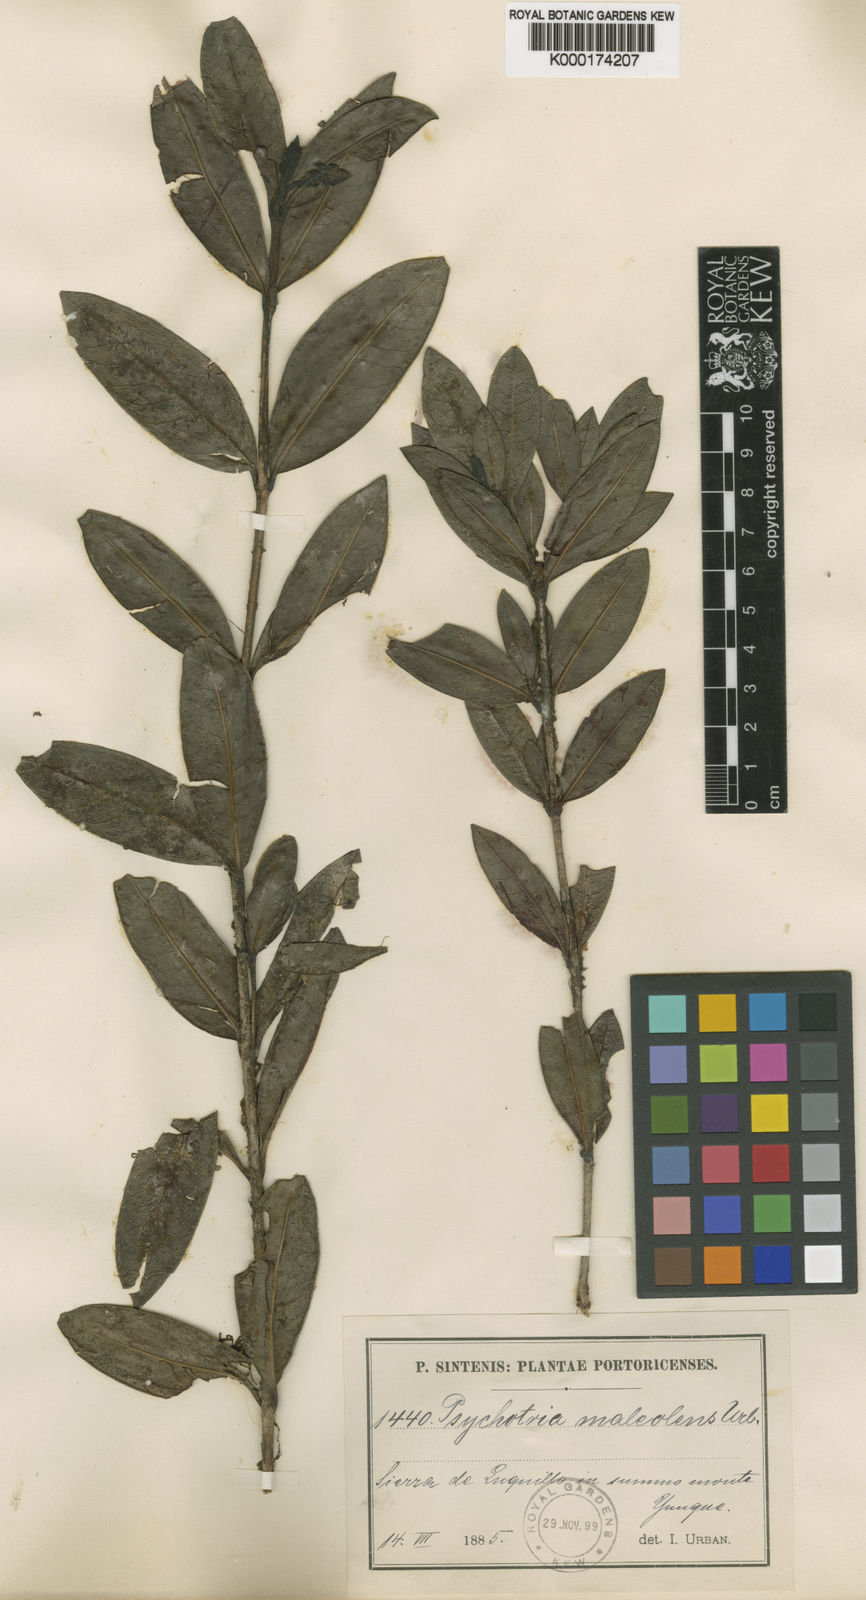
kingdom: Plantae
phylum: Tracheophyta
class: Magnoliopsida
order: Gentianales
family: Rubiaceae
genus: Psychotria
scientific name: Psychotria maleolens
